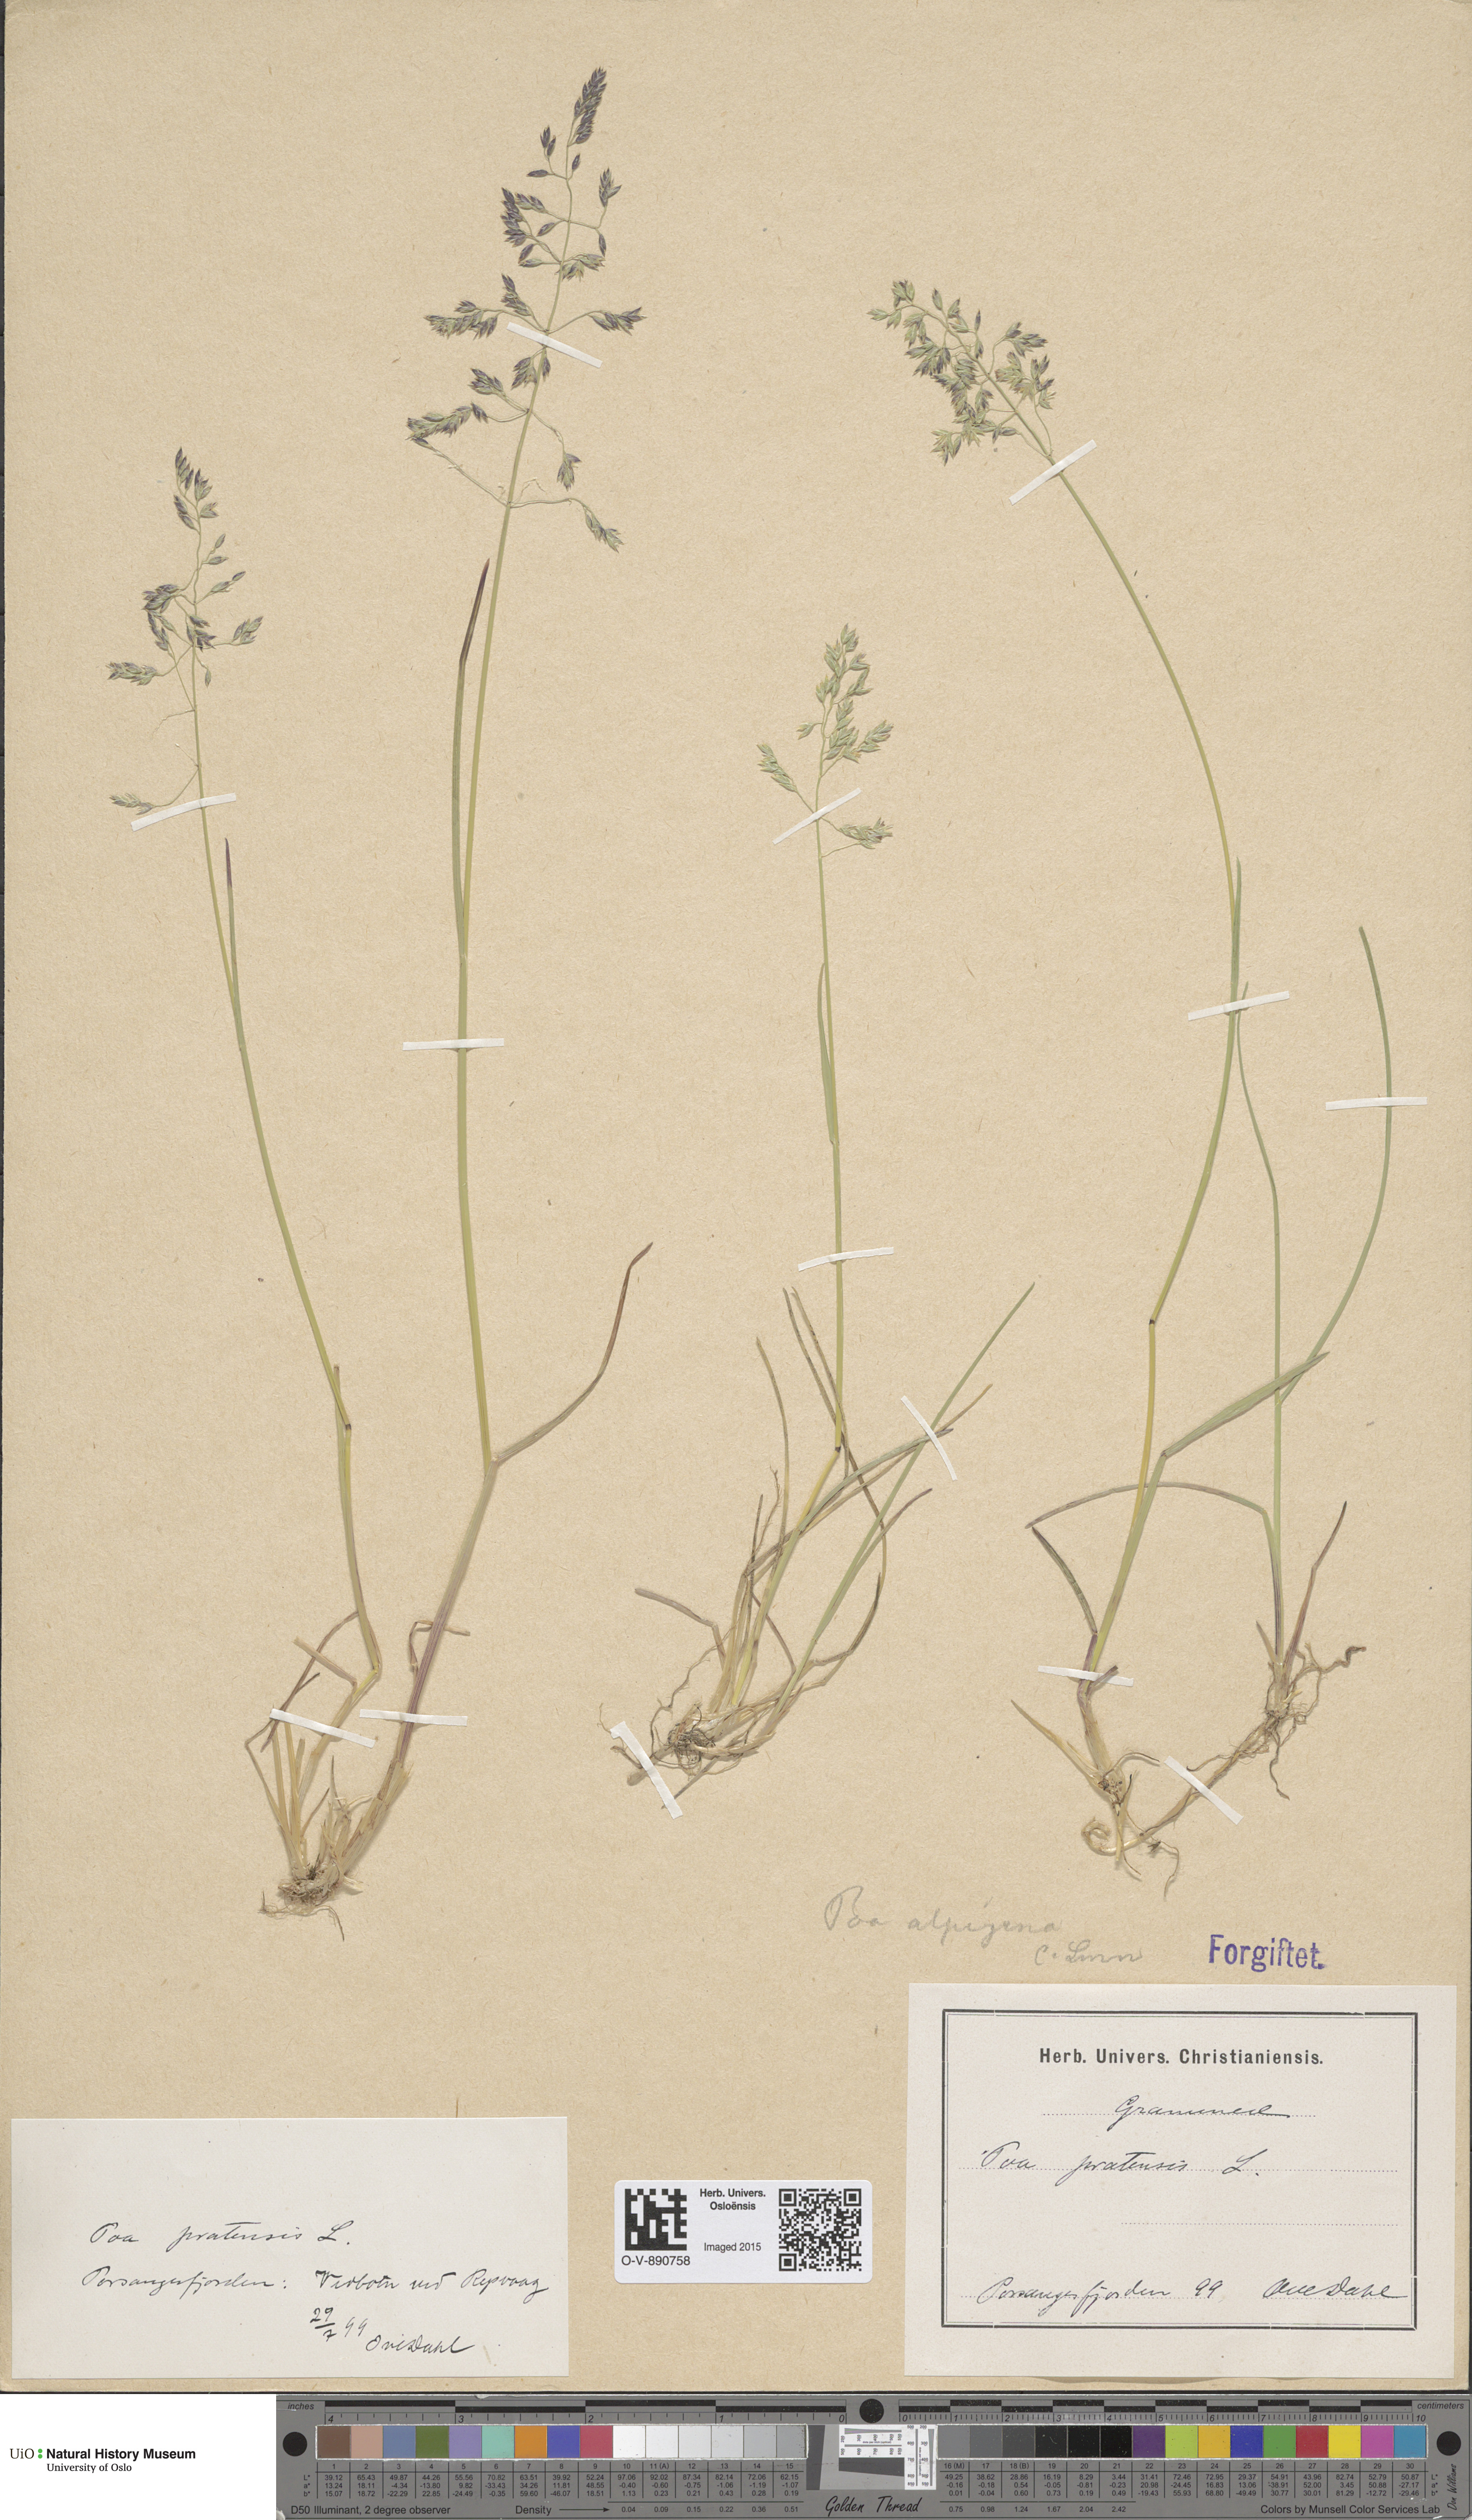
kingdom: Plantae
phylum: Tracheophyta
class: Liliopsida
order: Poales
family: Poaceae
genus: Poa
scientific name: Poa alpigena
